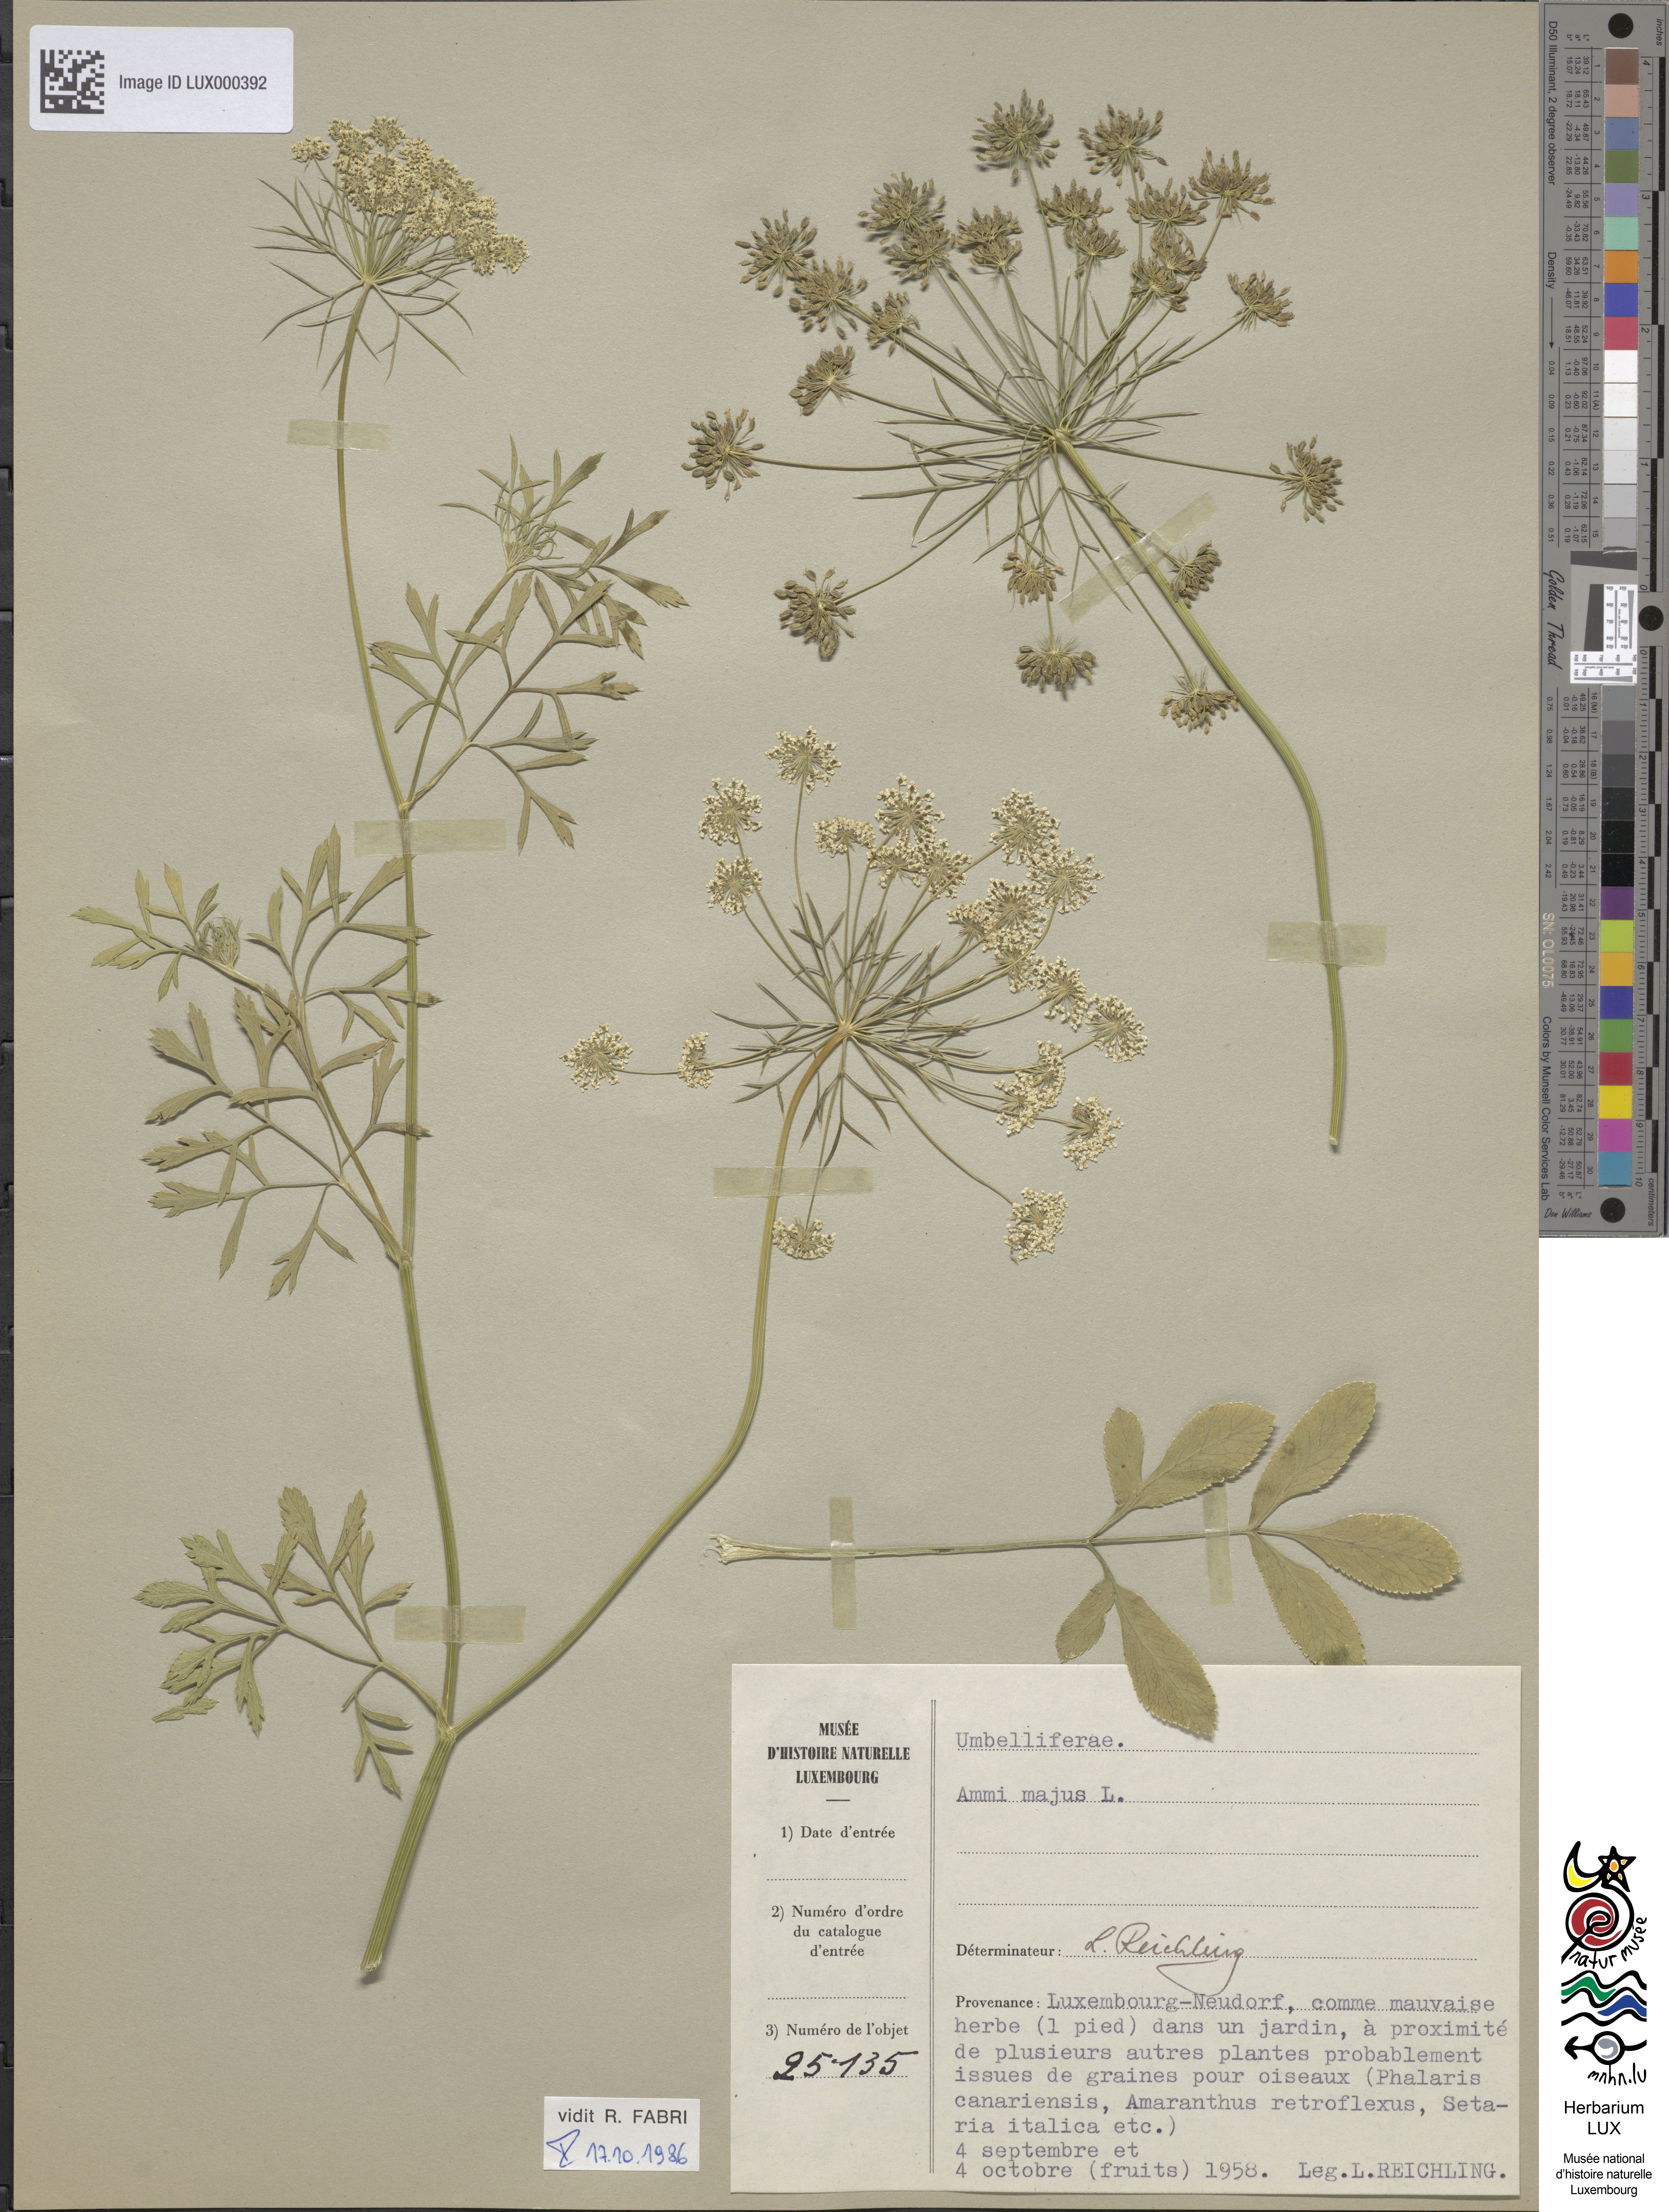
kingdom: Plantae
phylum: Tracheophyta
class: Magnoliopsida
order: Apiales
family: Apiaceae
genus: Ammi
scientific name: Ammi majus
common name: Bullwort
